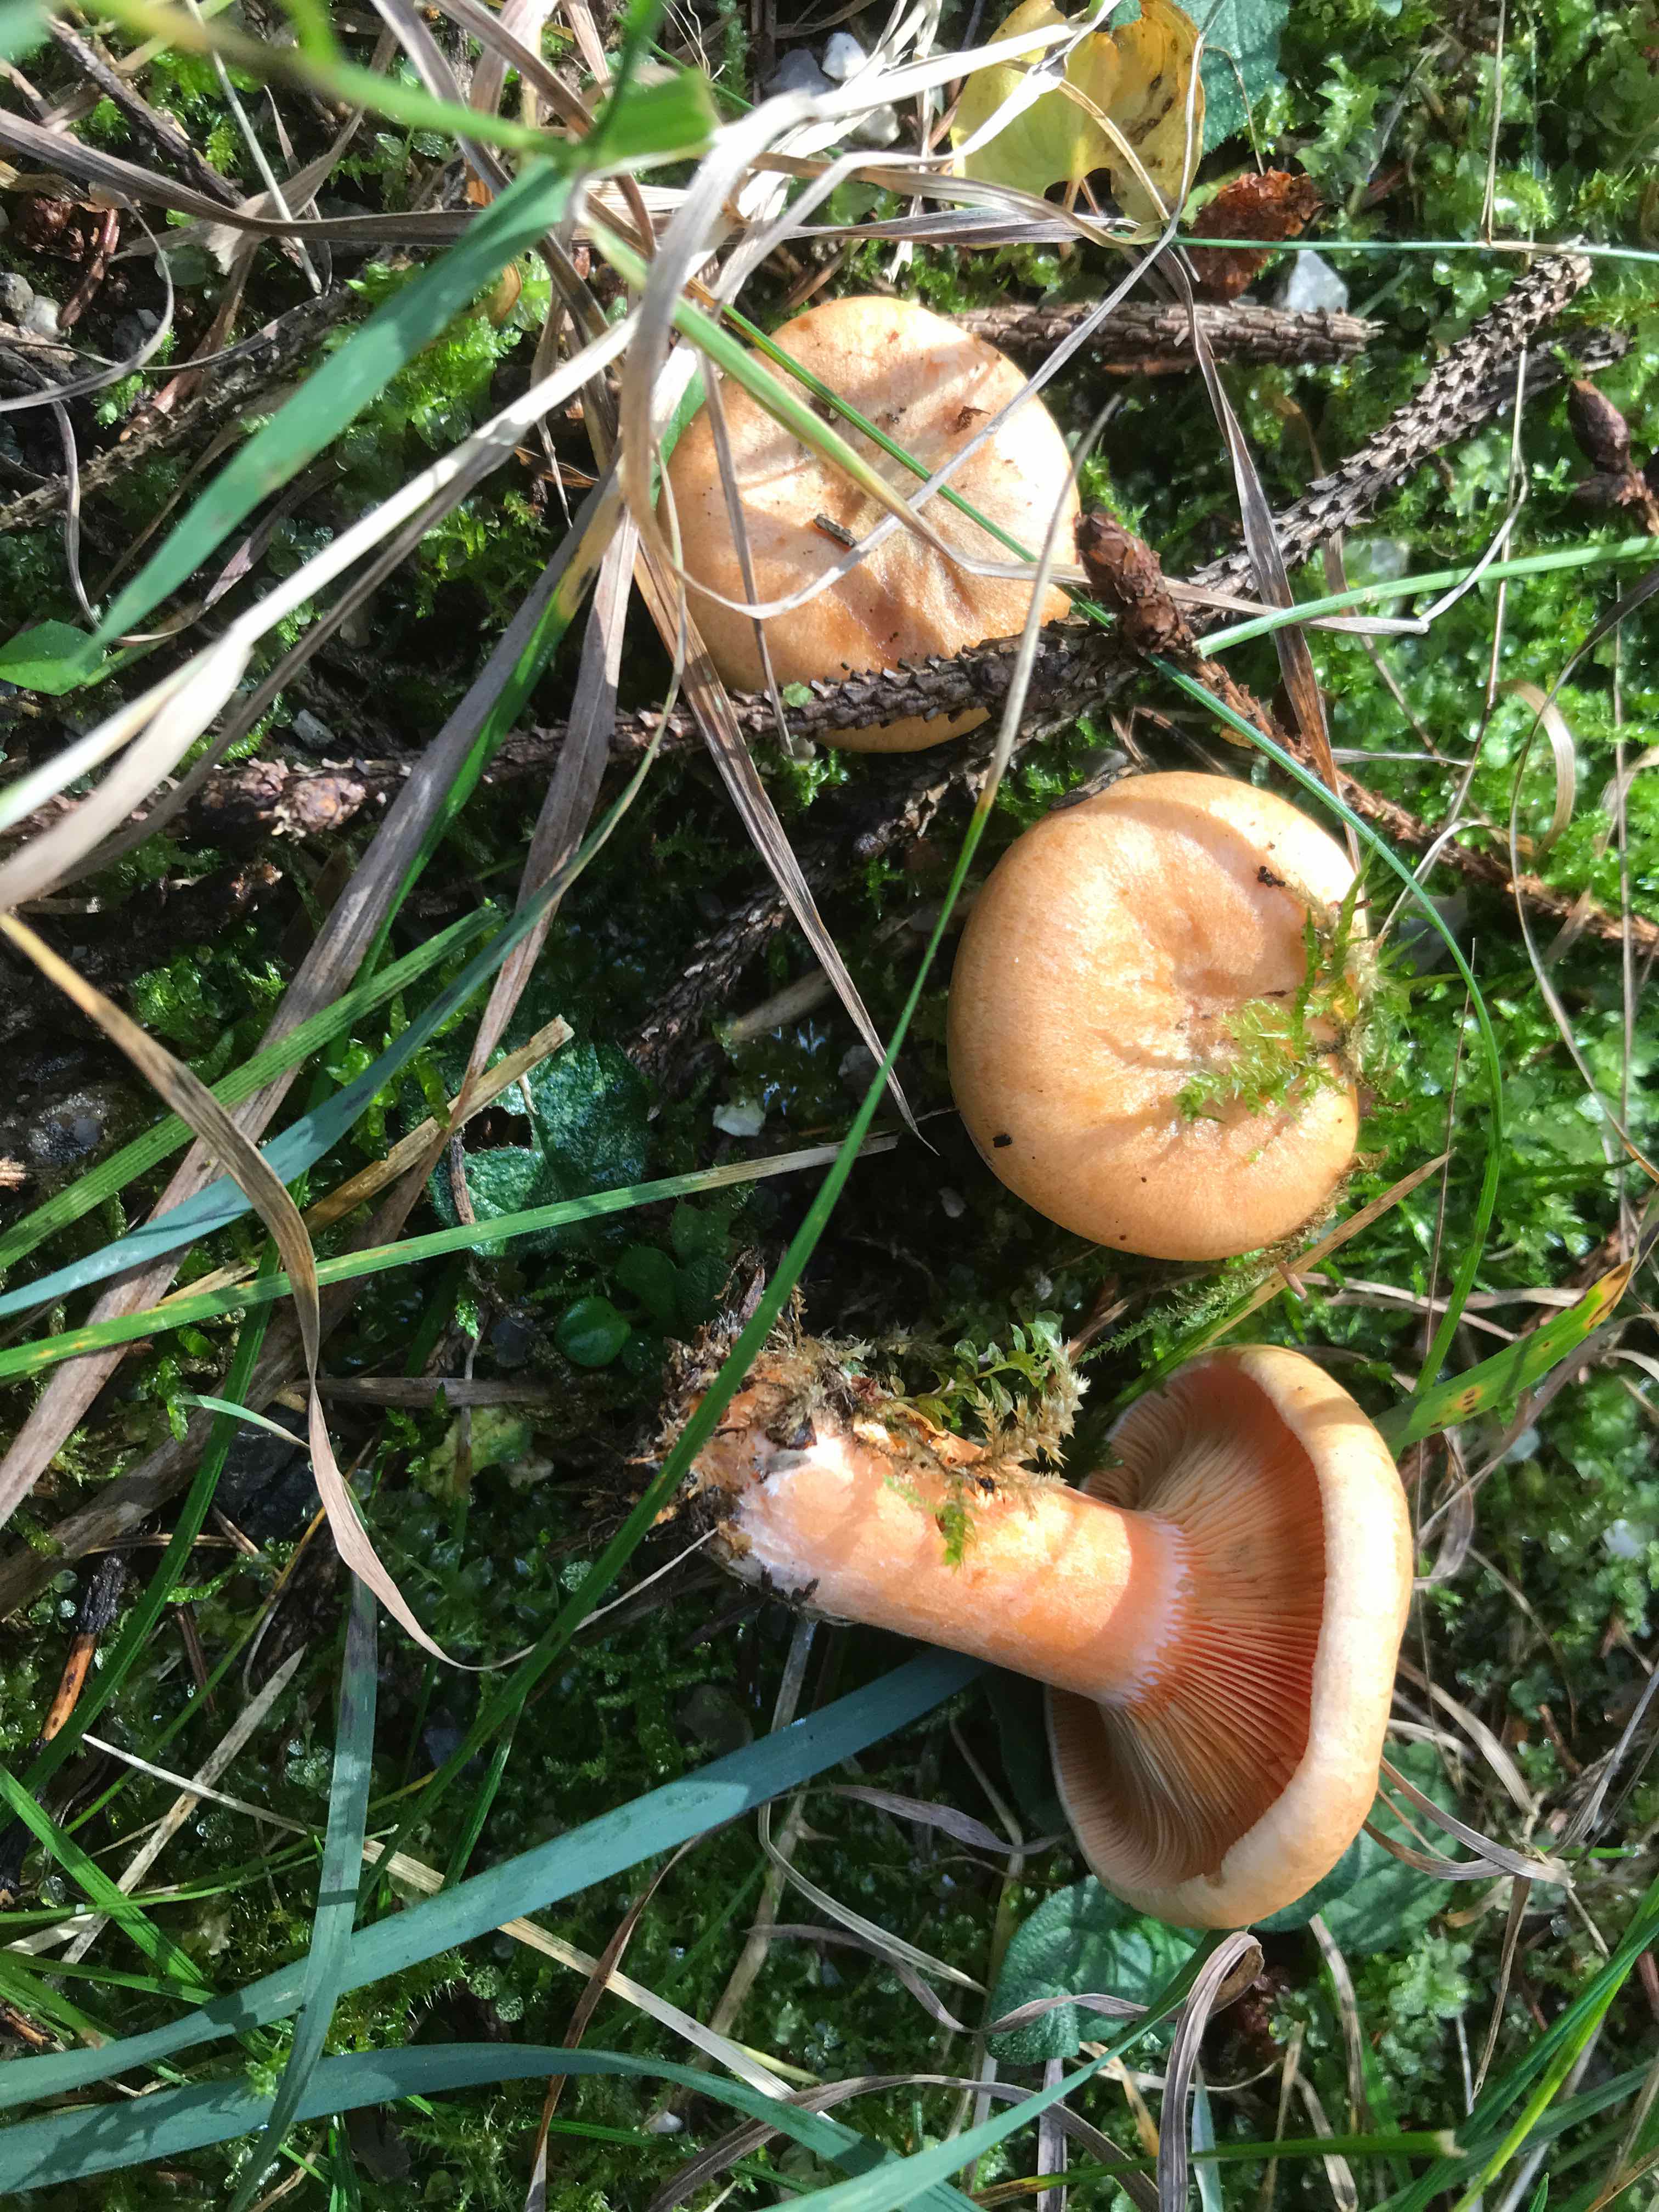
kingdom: Fungi
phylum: Basidiomycota
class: Agaricomycetes
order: Russulales
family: Russulaceae
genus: Lactarius
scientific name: Lactarius deterrimus
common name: gran-mælkehat
